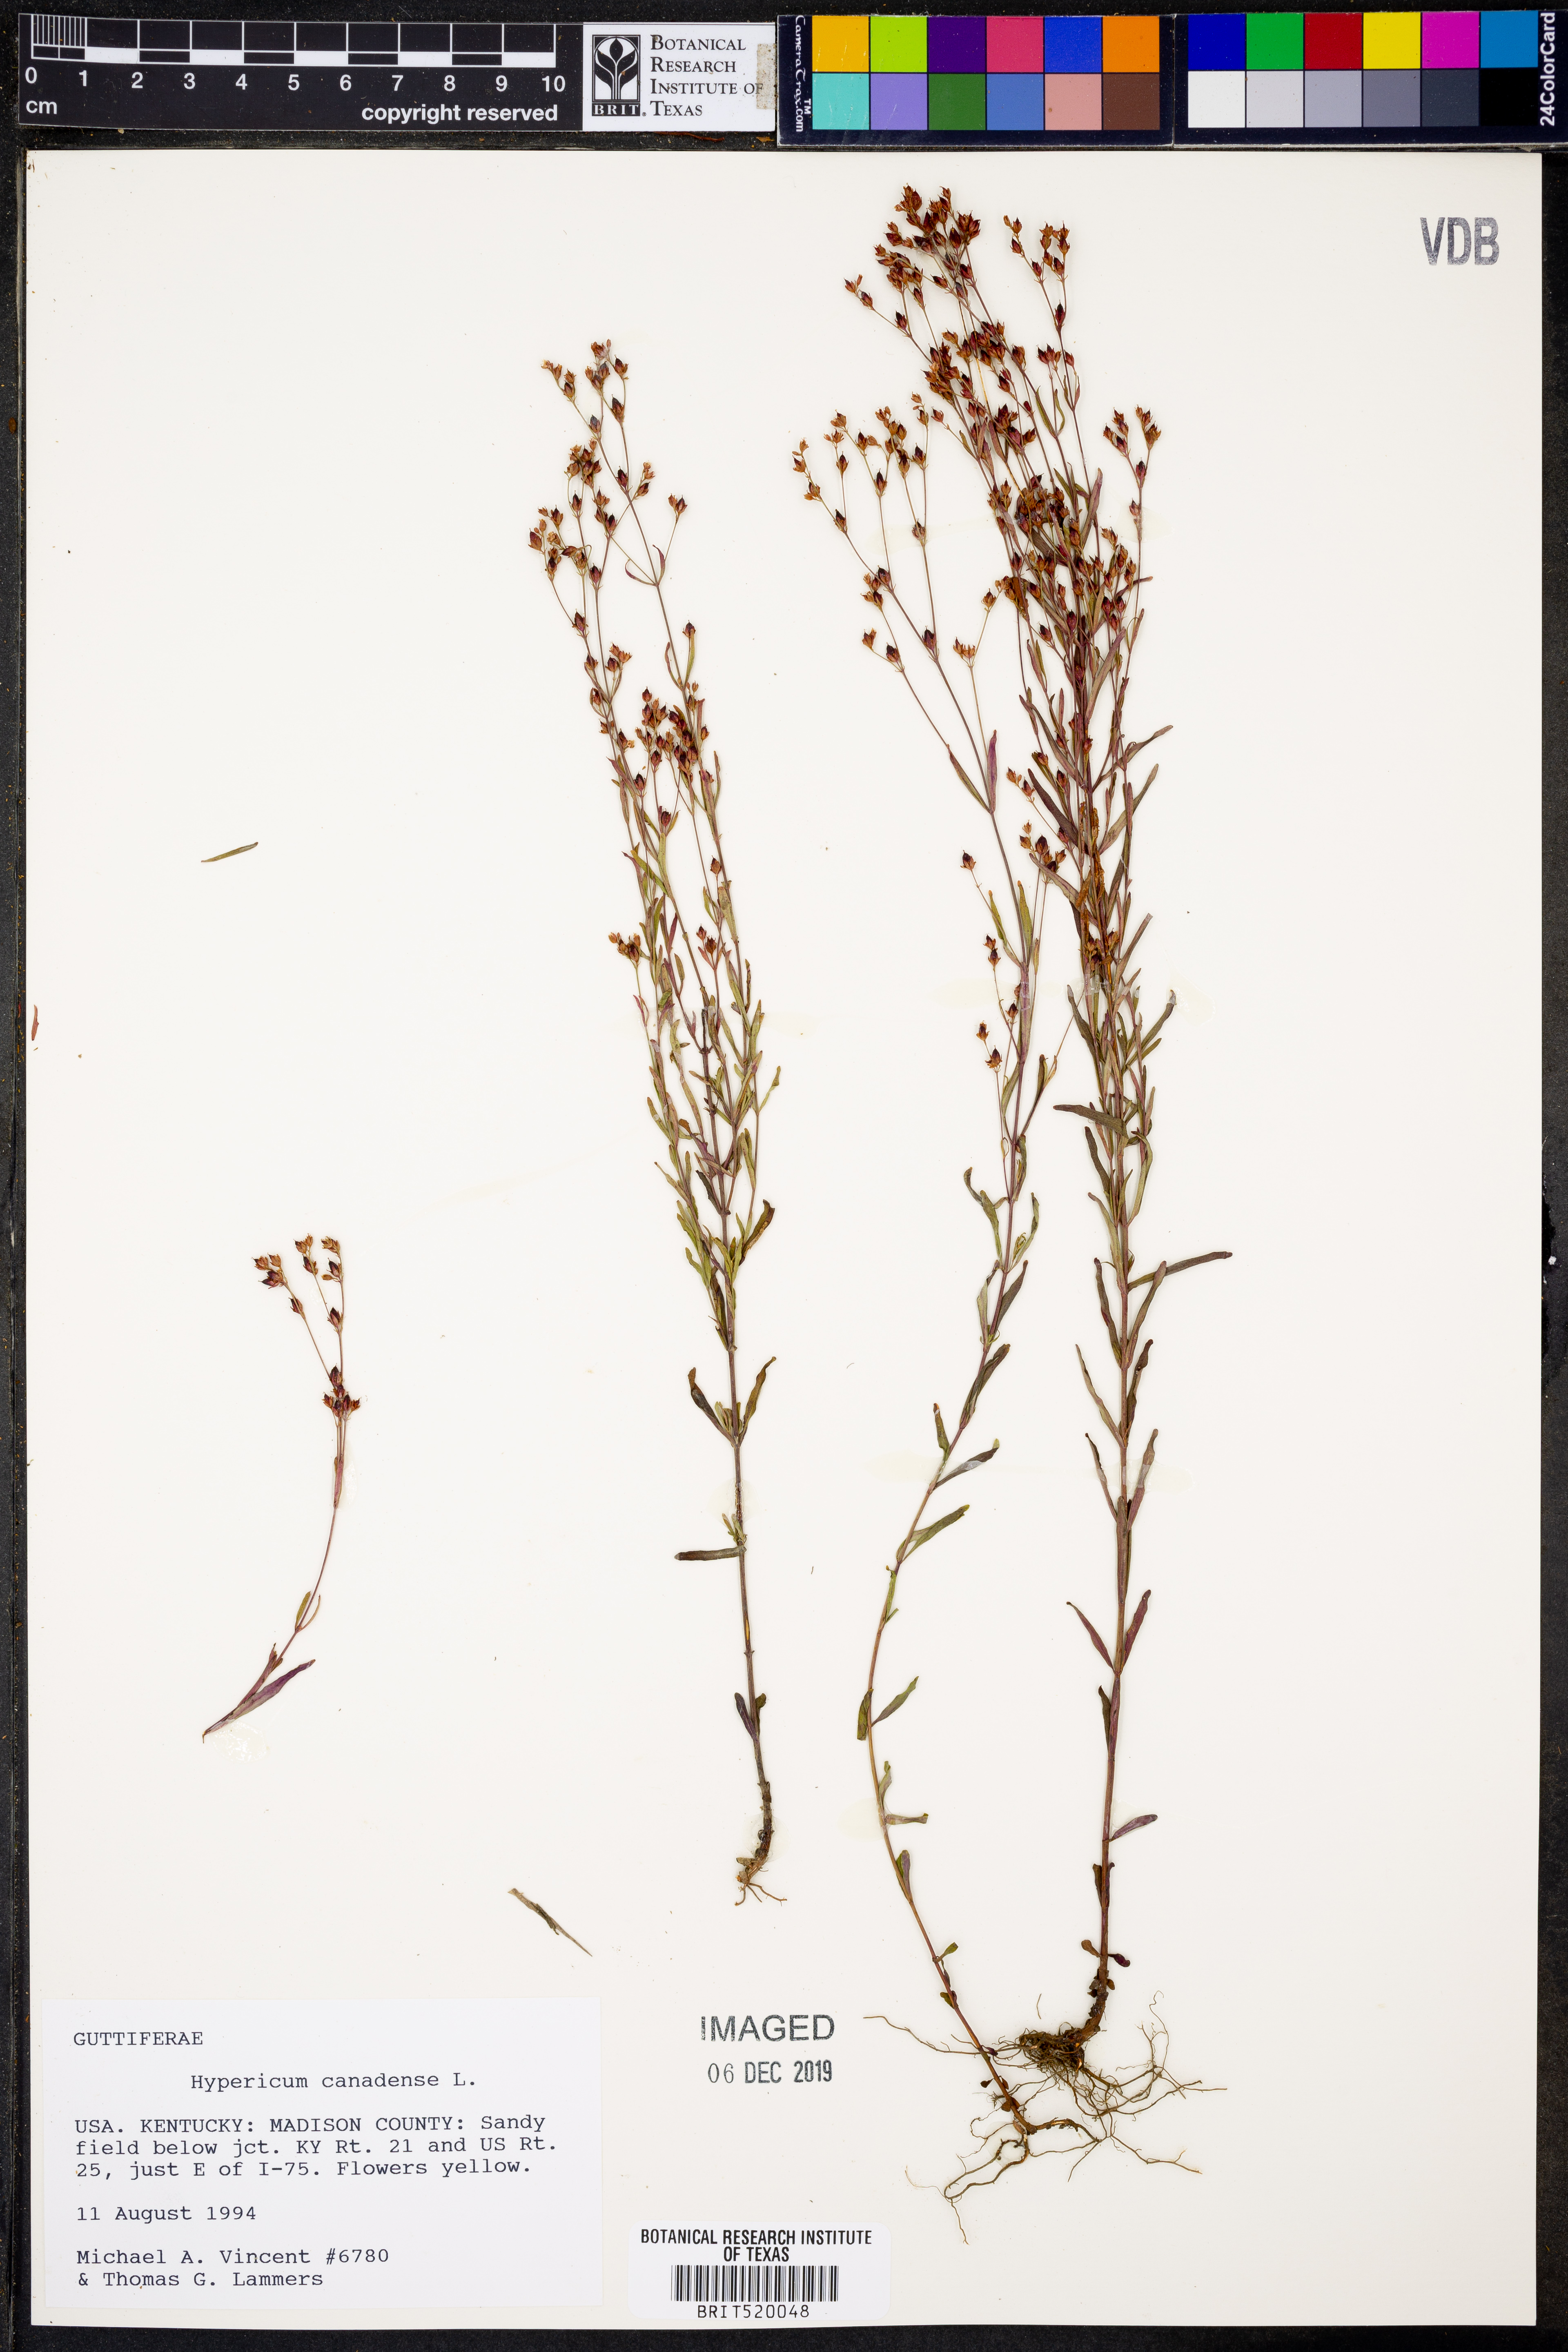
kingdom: Plantae
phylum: Tracheophyta
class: Magnoliopsida
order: Malpighiales
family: Hypericaceae
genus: Hypericum
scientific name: Hypericum canadense
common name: Irish st. john's-wort
